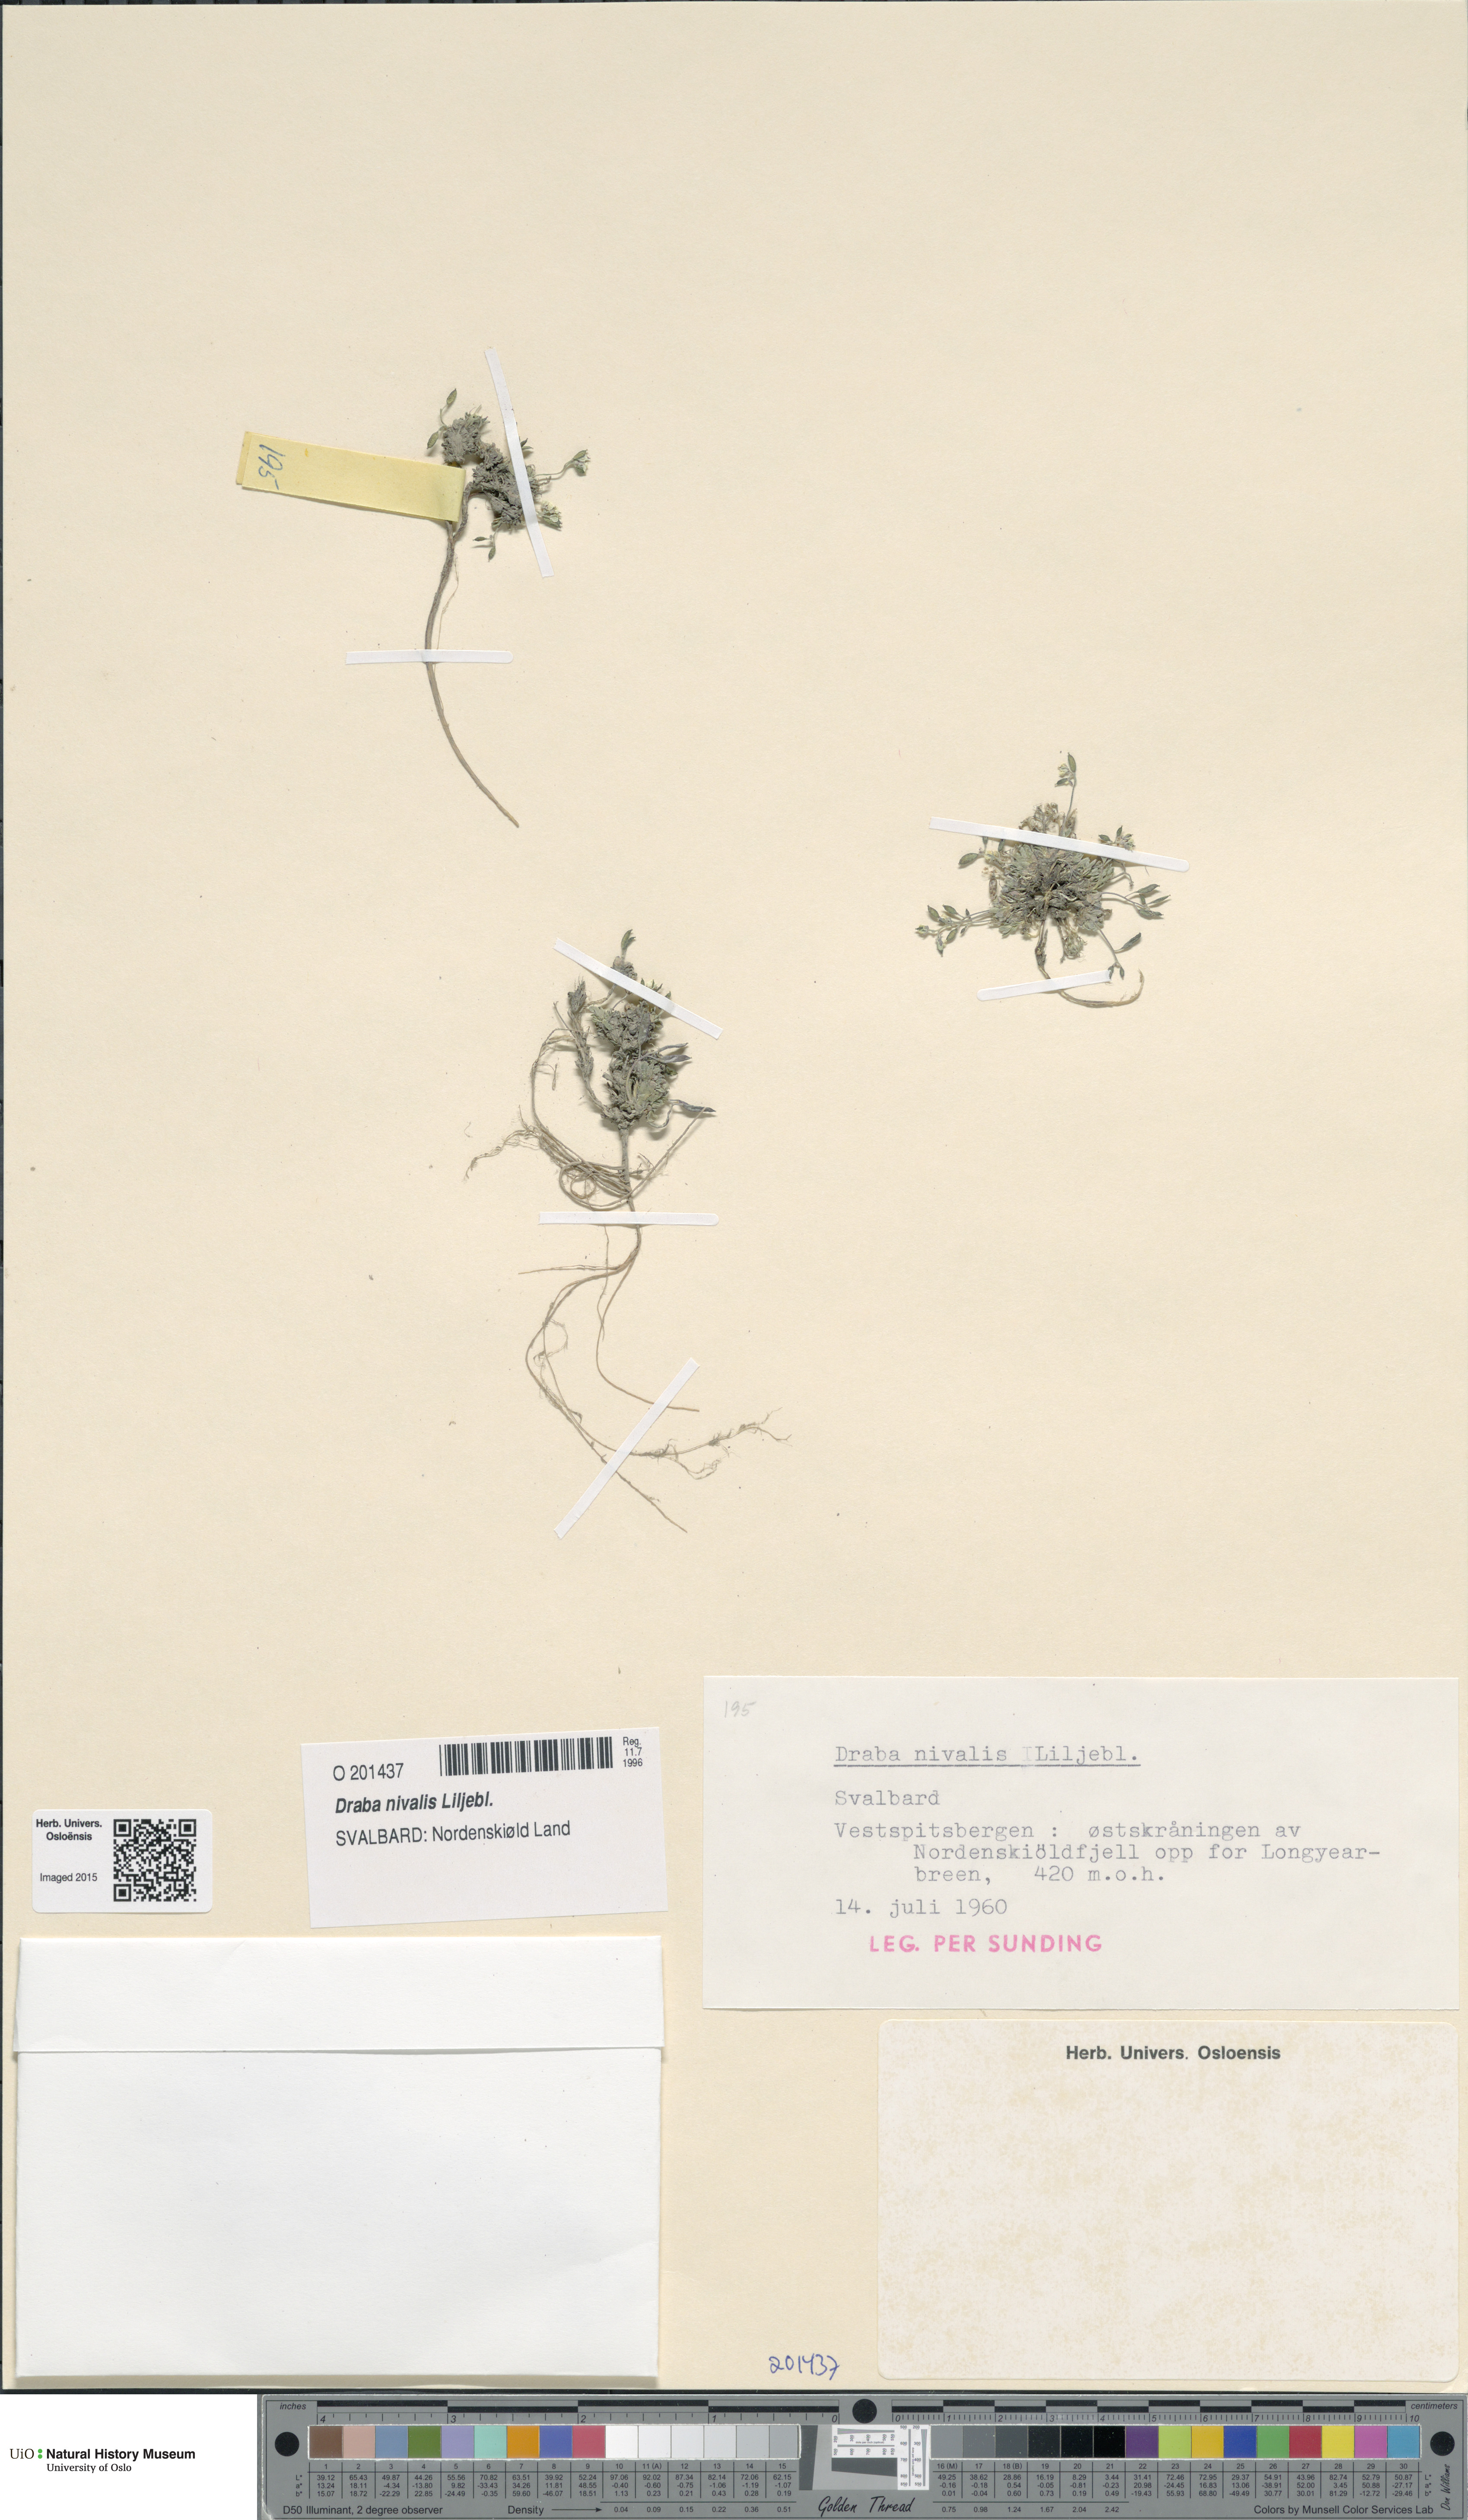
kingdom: Plantae
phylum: Tracheophyta
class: Magnoliopsida
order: Brassicales
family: Brassicaceae
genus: Draba
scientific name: Draba nivalis
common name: Snow draba
